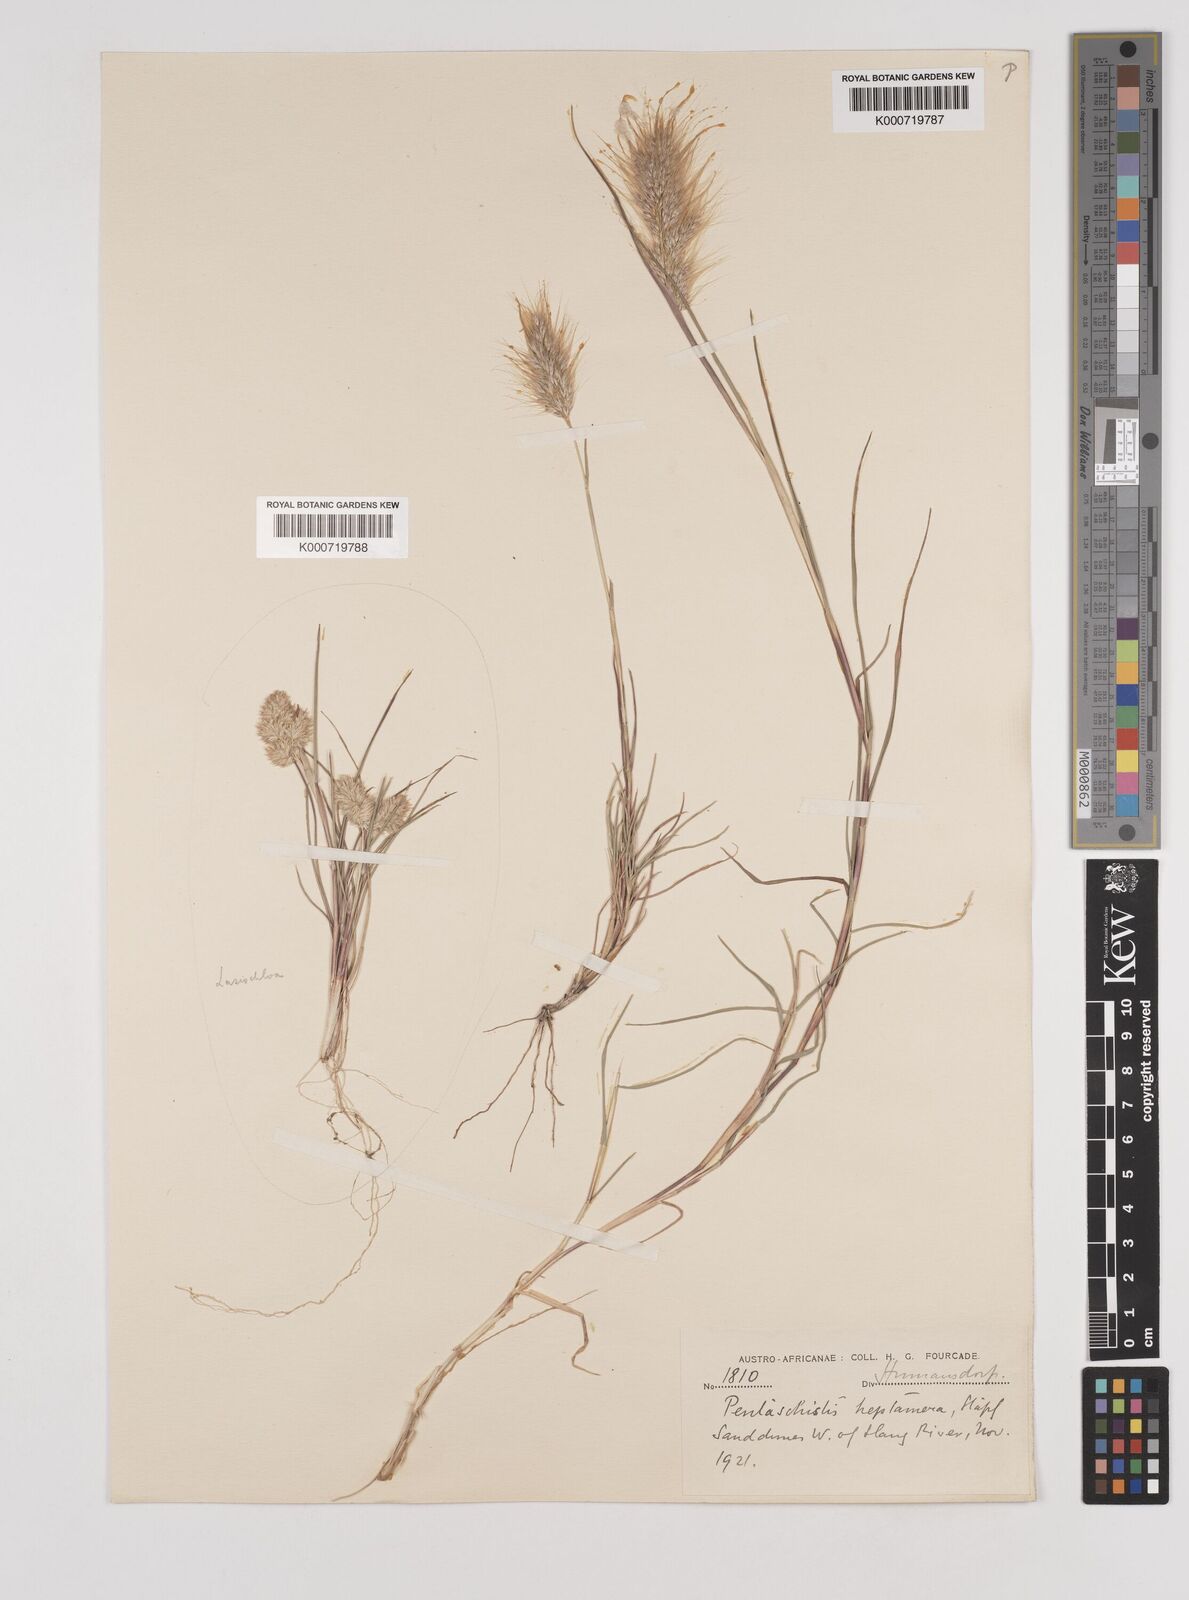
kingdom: Plantae
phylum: Tracheophyta
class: Liliopsida
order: Poales
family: Poaceae
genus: Pentameris
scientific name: Pentameris heptamera
